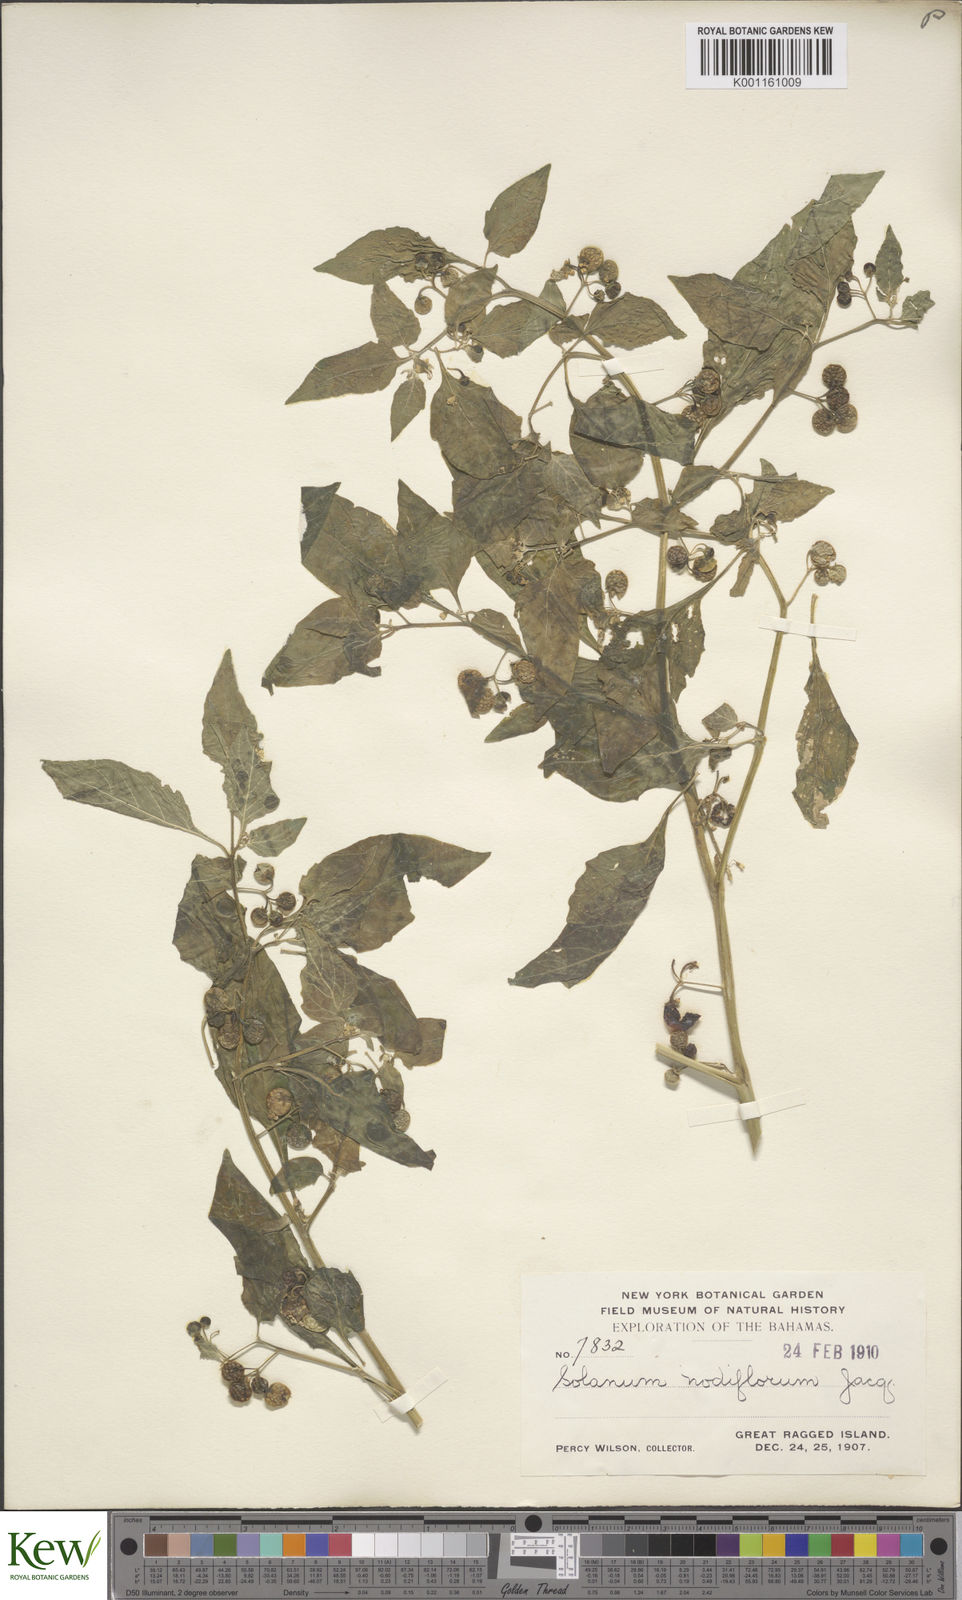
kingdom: Plantae
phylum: Tracheophyta
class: Magnoliopsida
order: Solanales
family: Solanaceae
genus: Solanum
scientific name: Solanum americanum
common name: American black nightshade
